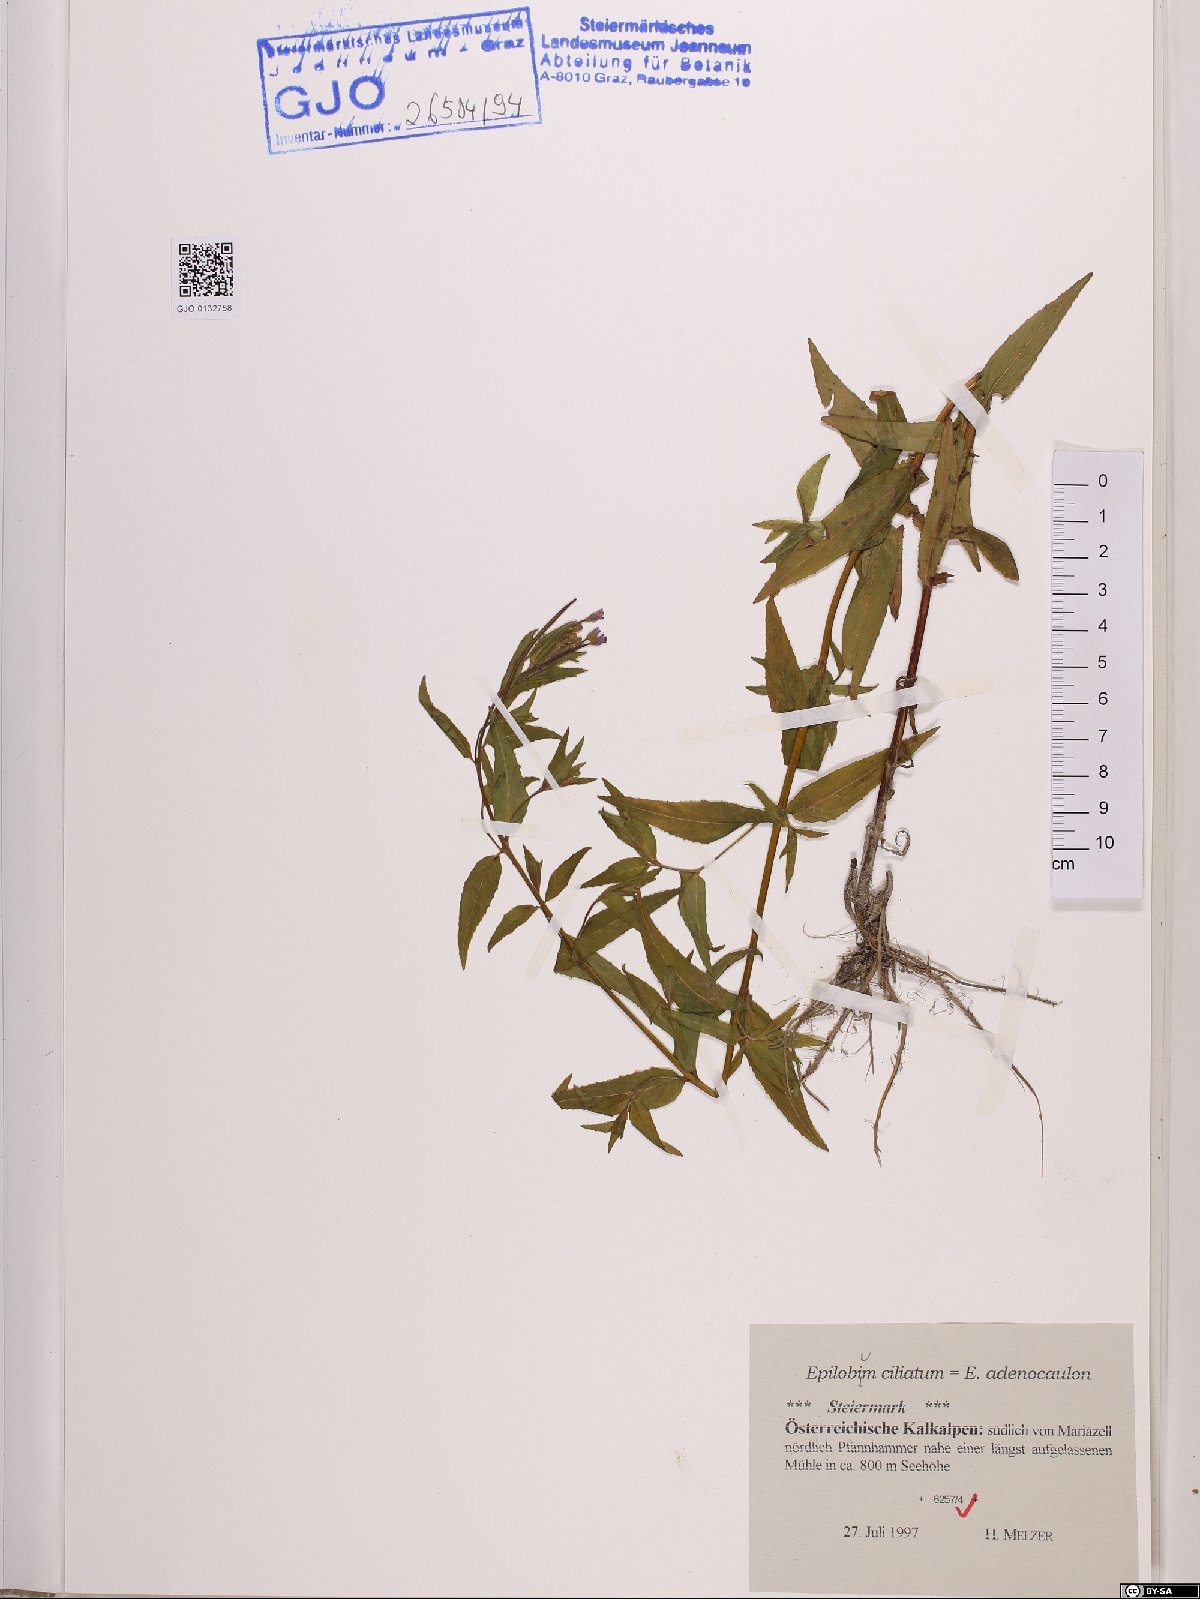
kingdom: Plantae
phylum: Tracheophyta
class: Magnoliopsida
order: Myrtales
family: Onagraceae
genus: Epilobium
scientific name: Epilobium ciliatum
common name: American willowherb
